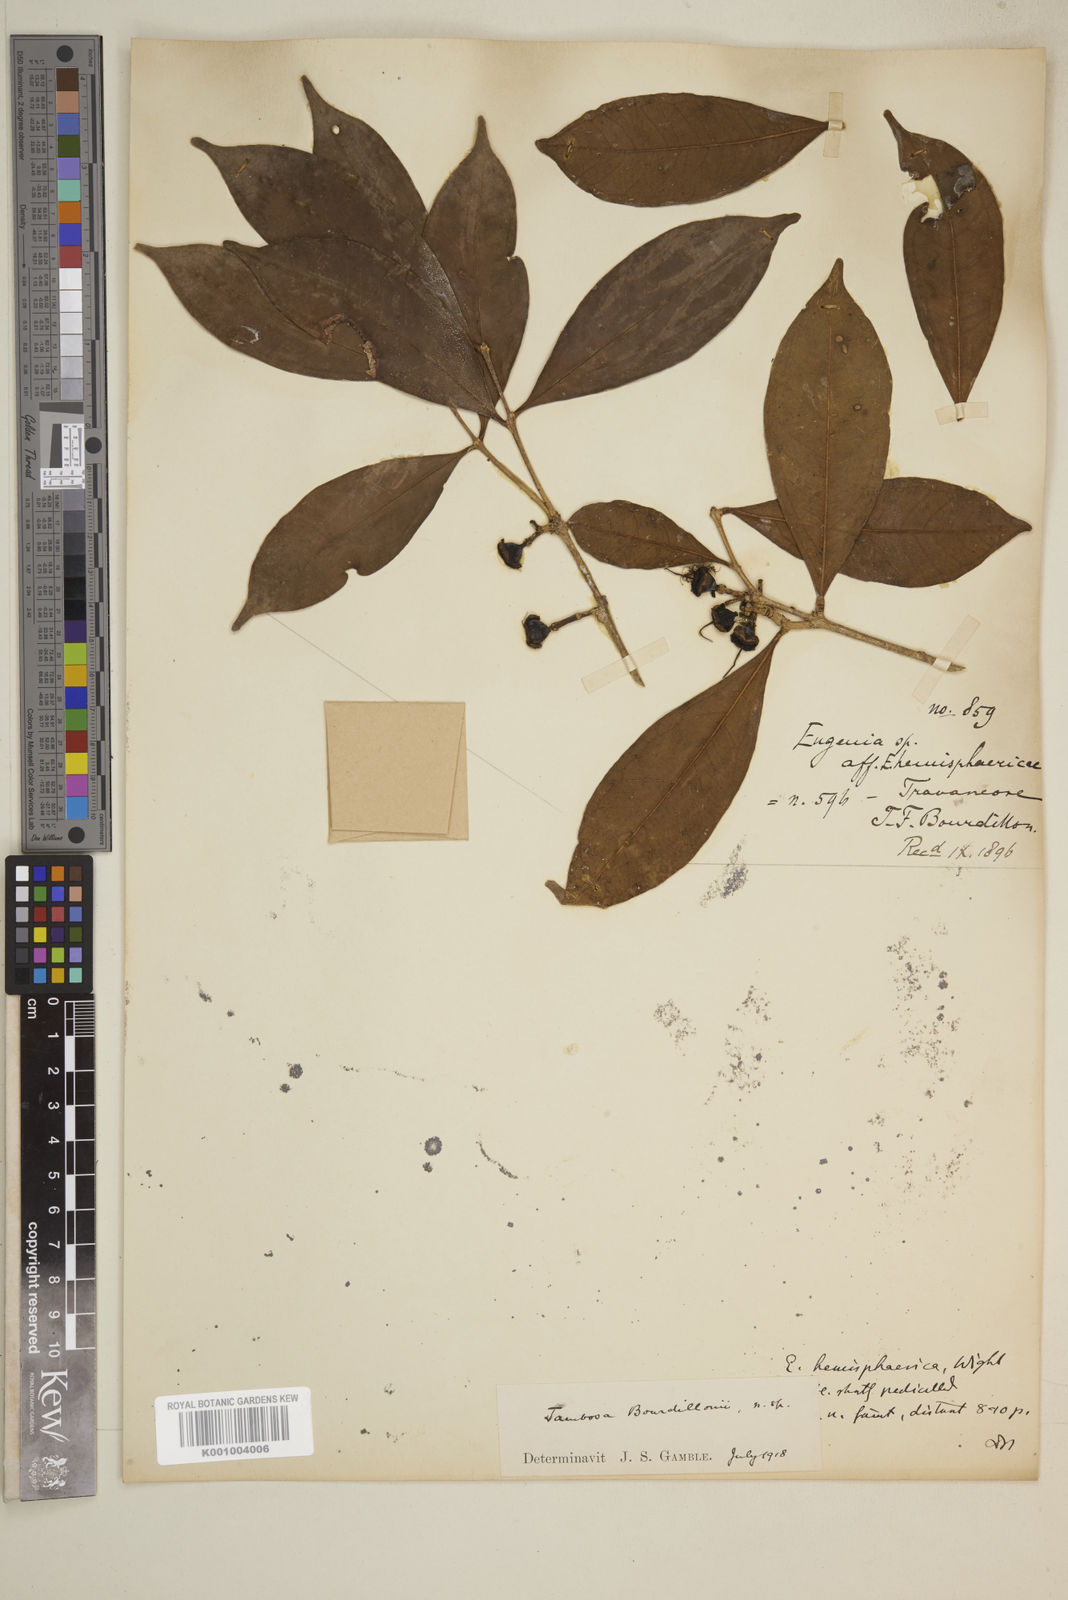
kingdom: Plantae
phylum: Tracheophyta
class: Magnoliopsida
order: Myrtales
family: Myrtaceae
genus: Syzygium
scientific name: Syzygium bourdillonii
